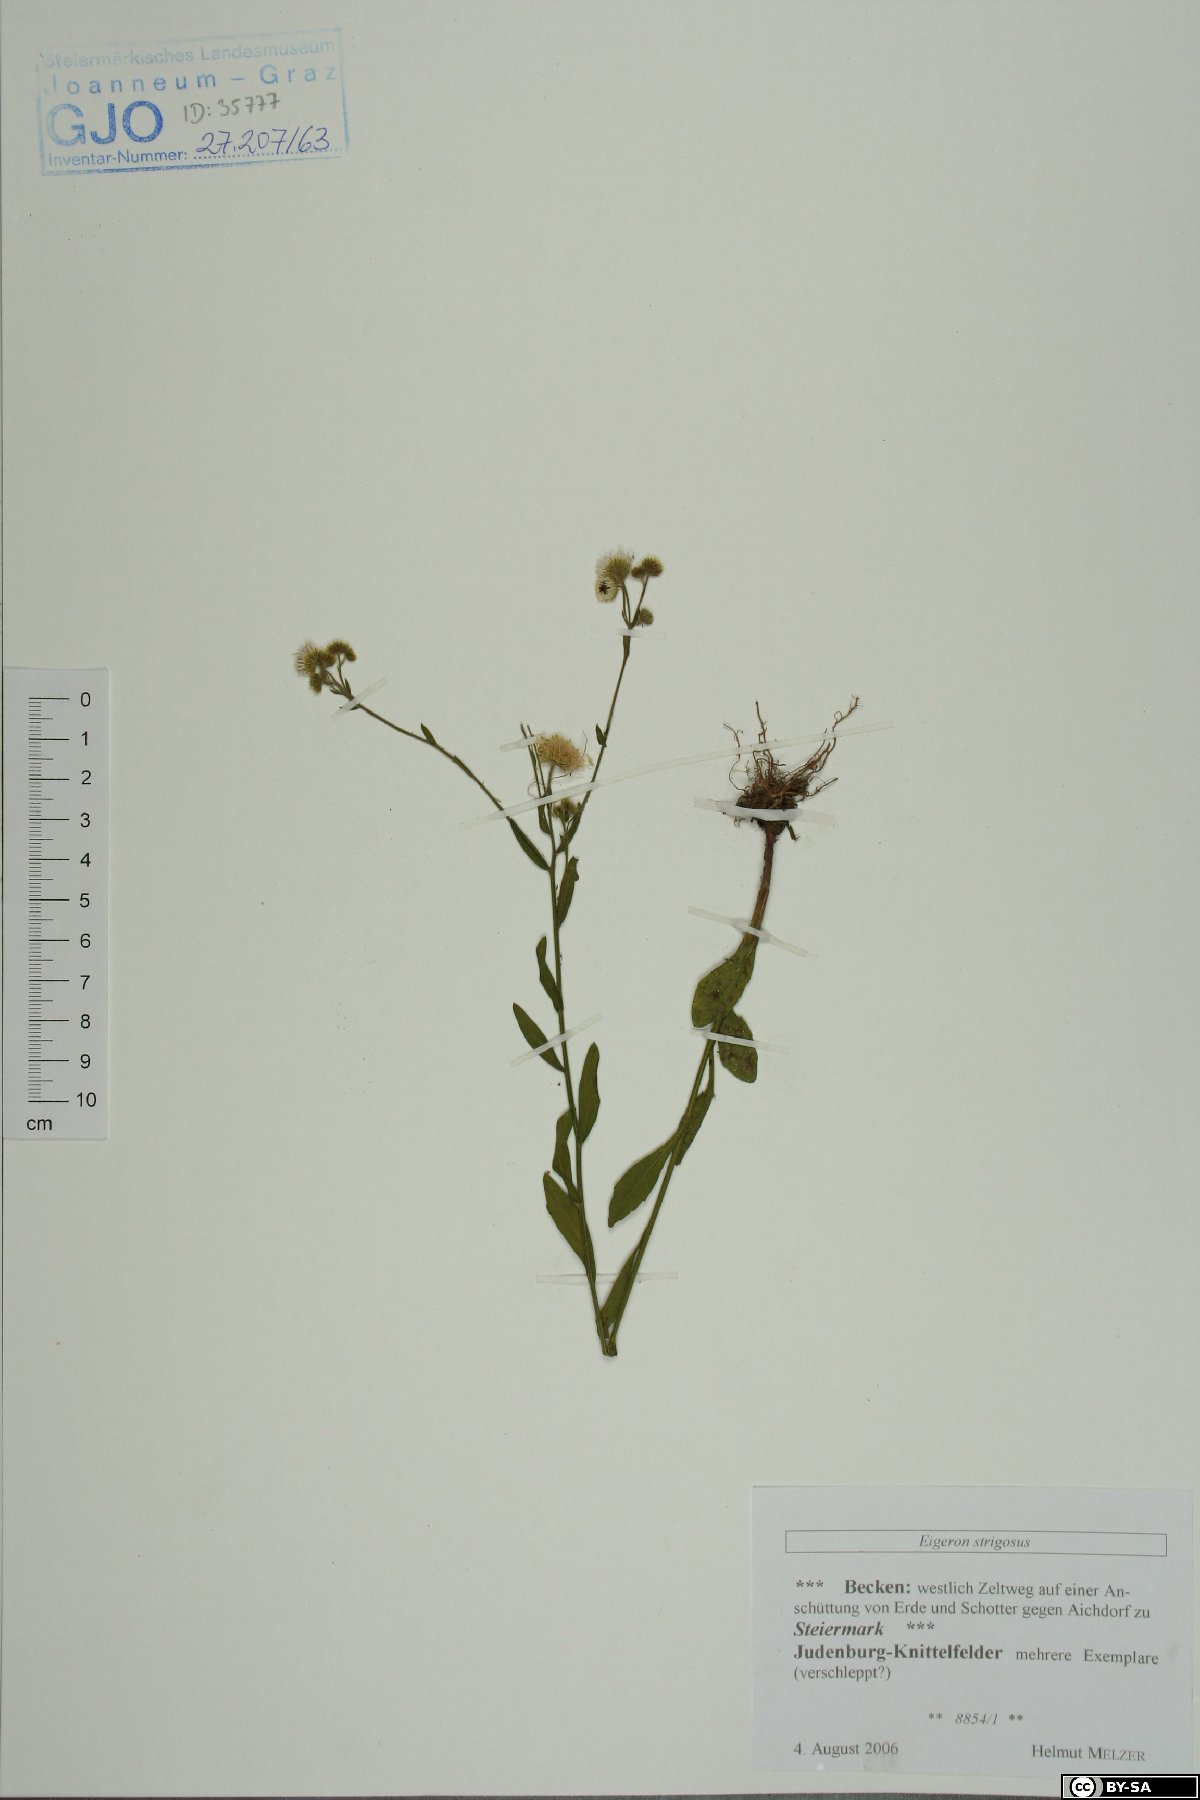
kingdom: Plantae
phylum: Tracheophyta
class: Magnoliopsida
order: Asterales
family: Asteraceae
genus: Erigeron
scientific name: Erigeron strigosus
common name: Common eastern fleabane
